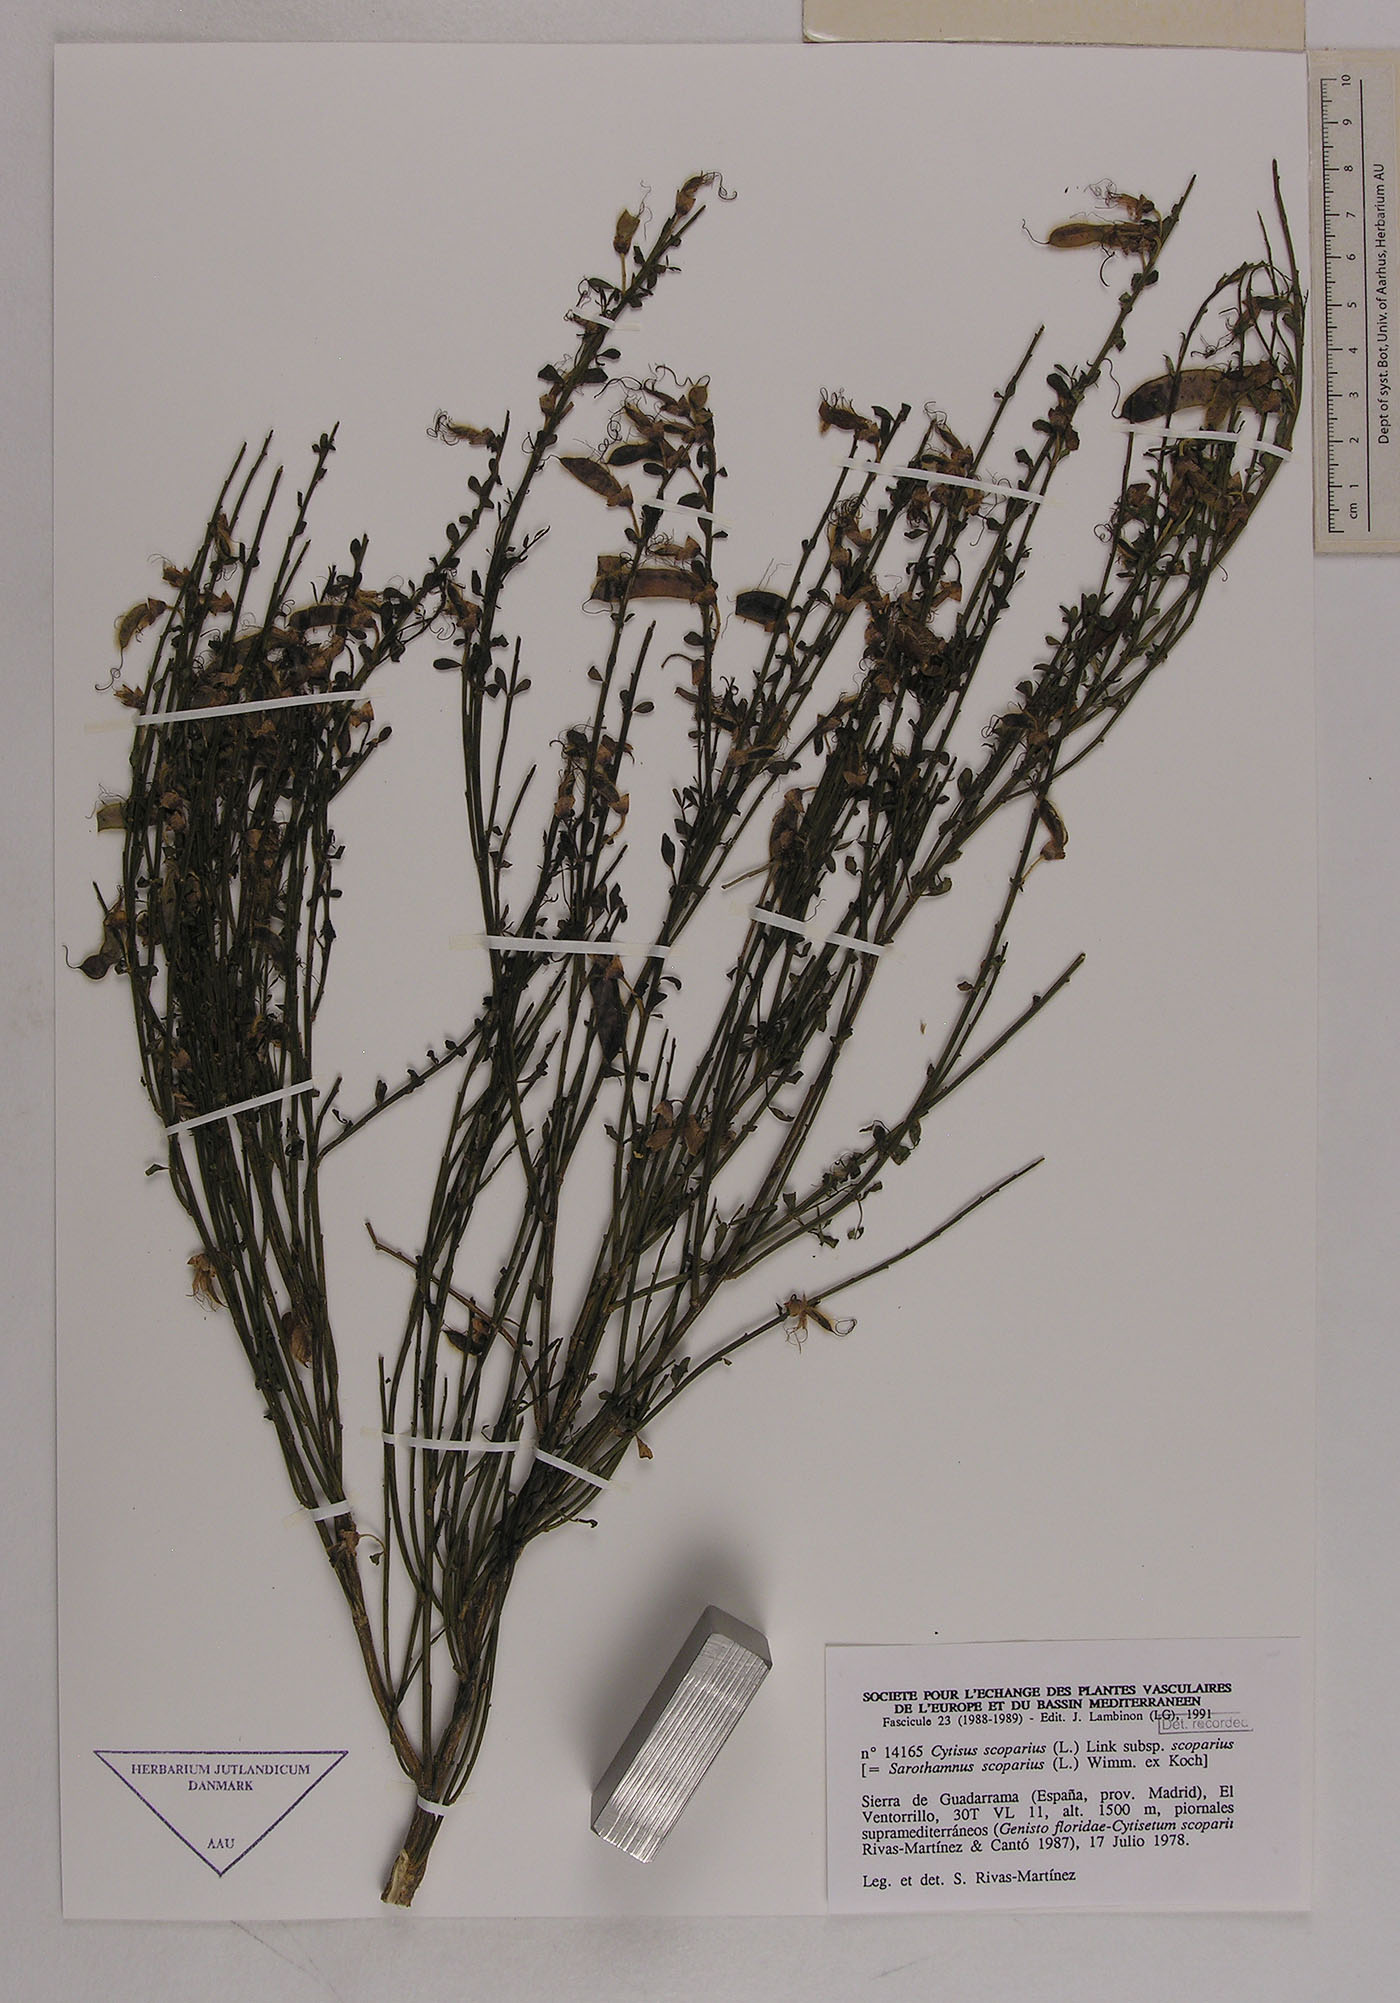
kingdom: Plantae
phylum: Tracheophyta
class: Magnoliopsida
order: Fabales
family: Fabaceae
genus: Cytisus
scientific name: Cytisus scoparius
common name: Scotch broom
